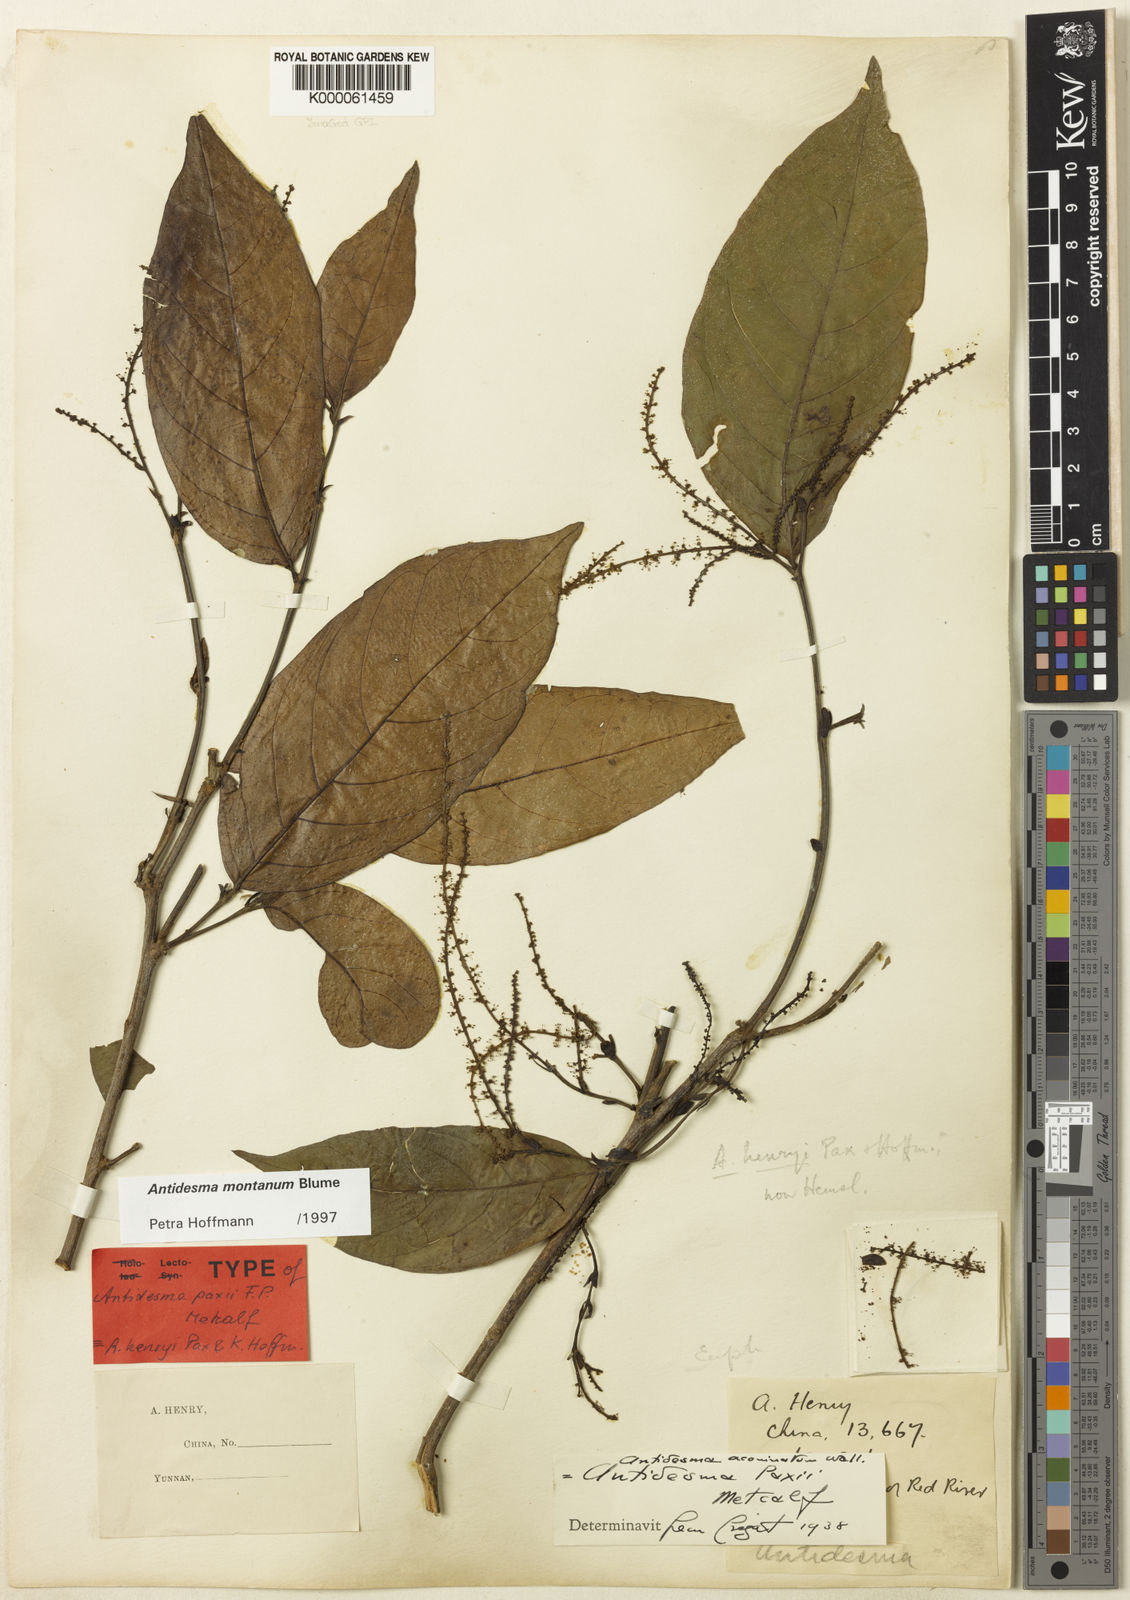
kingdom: Plantae
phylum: Tracheophyta
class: Magnoliopsida
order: Malpighiales
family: Phyllanthaceae
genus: Antidesma
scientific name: Antidesma montanum
